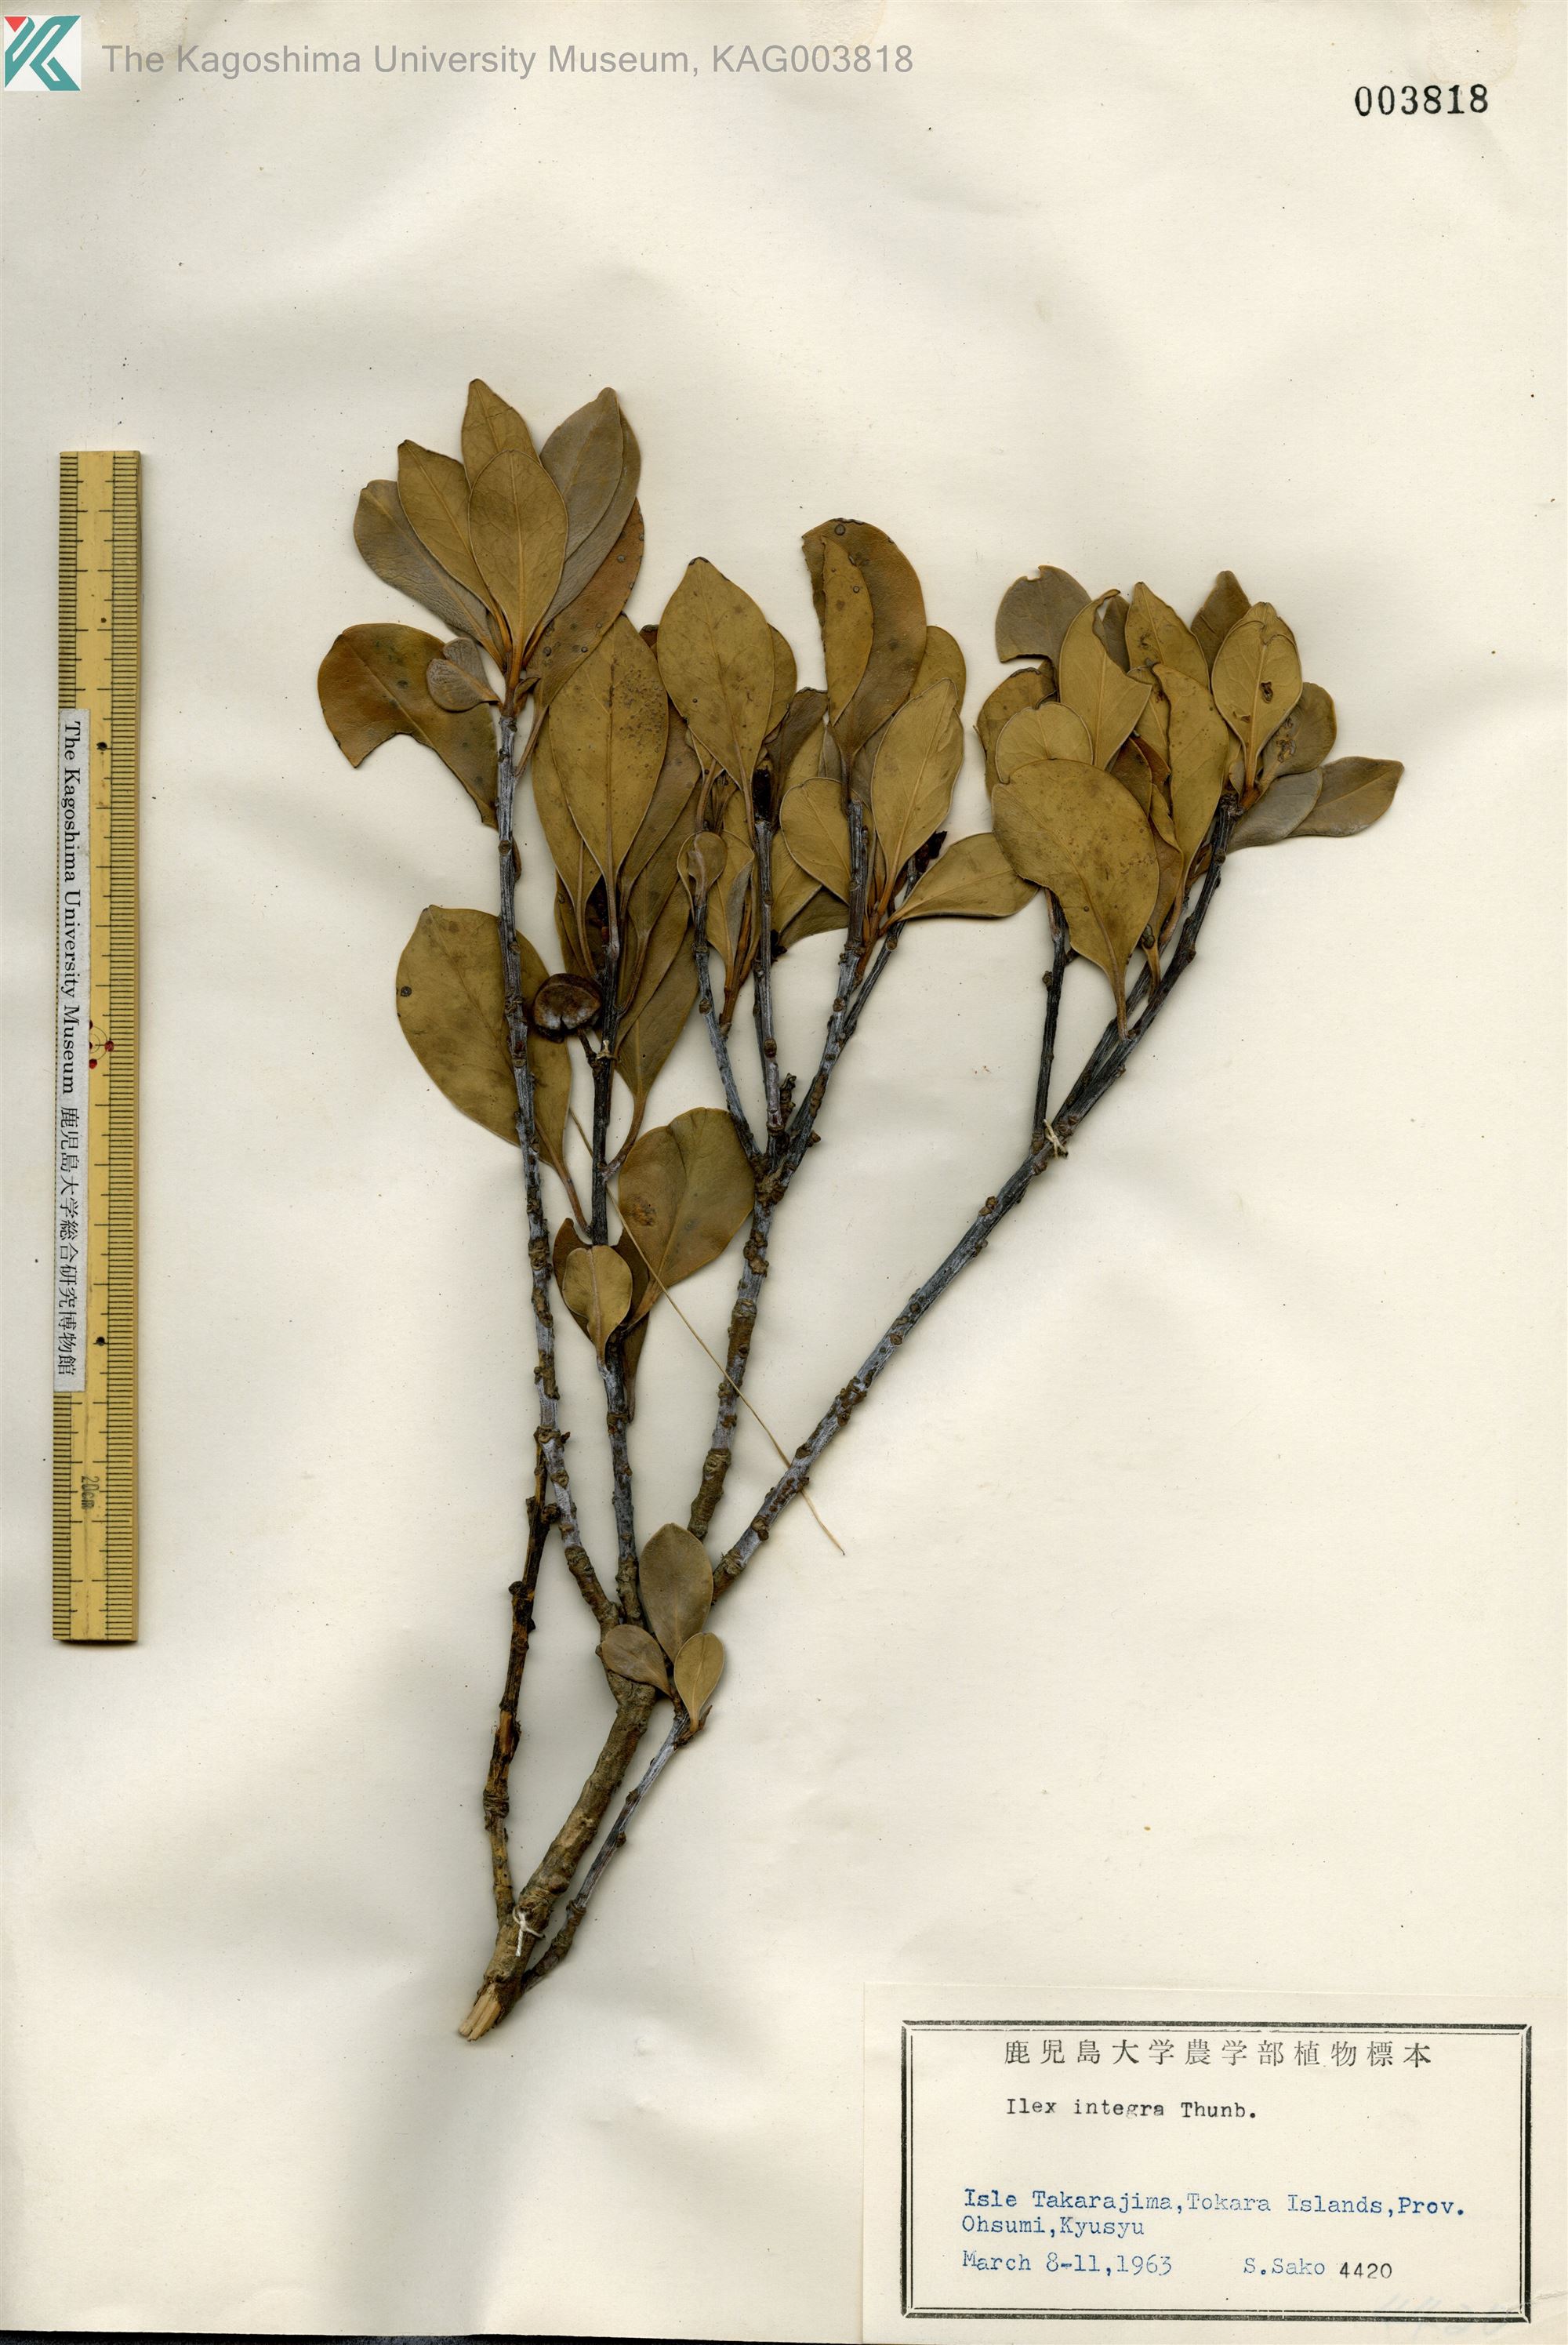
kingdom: Plantae
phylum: Tracheophyta
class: Magnoliopsida
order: Aquifoliales
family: Aquifoliaceae
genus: Ilex
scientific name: Ilex integra
